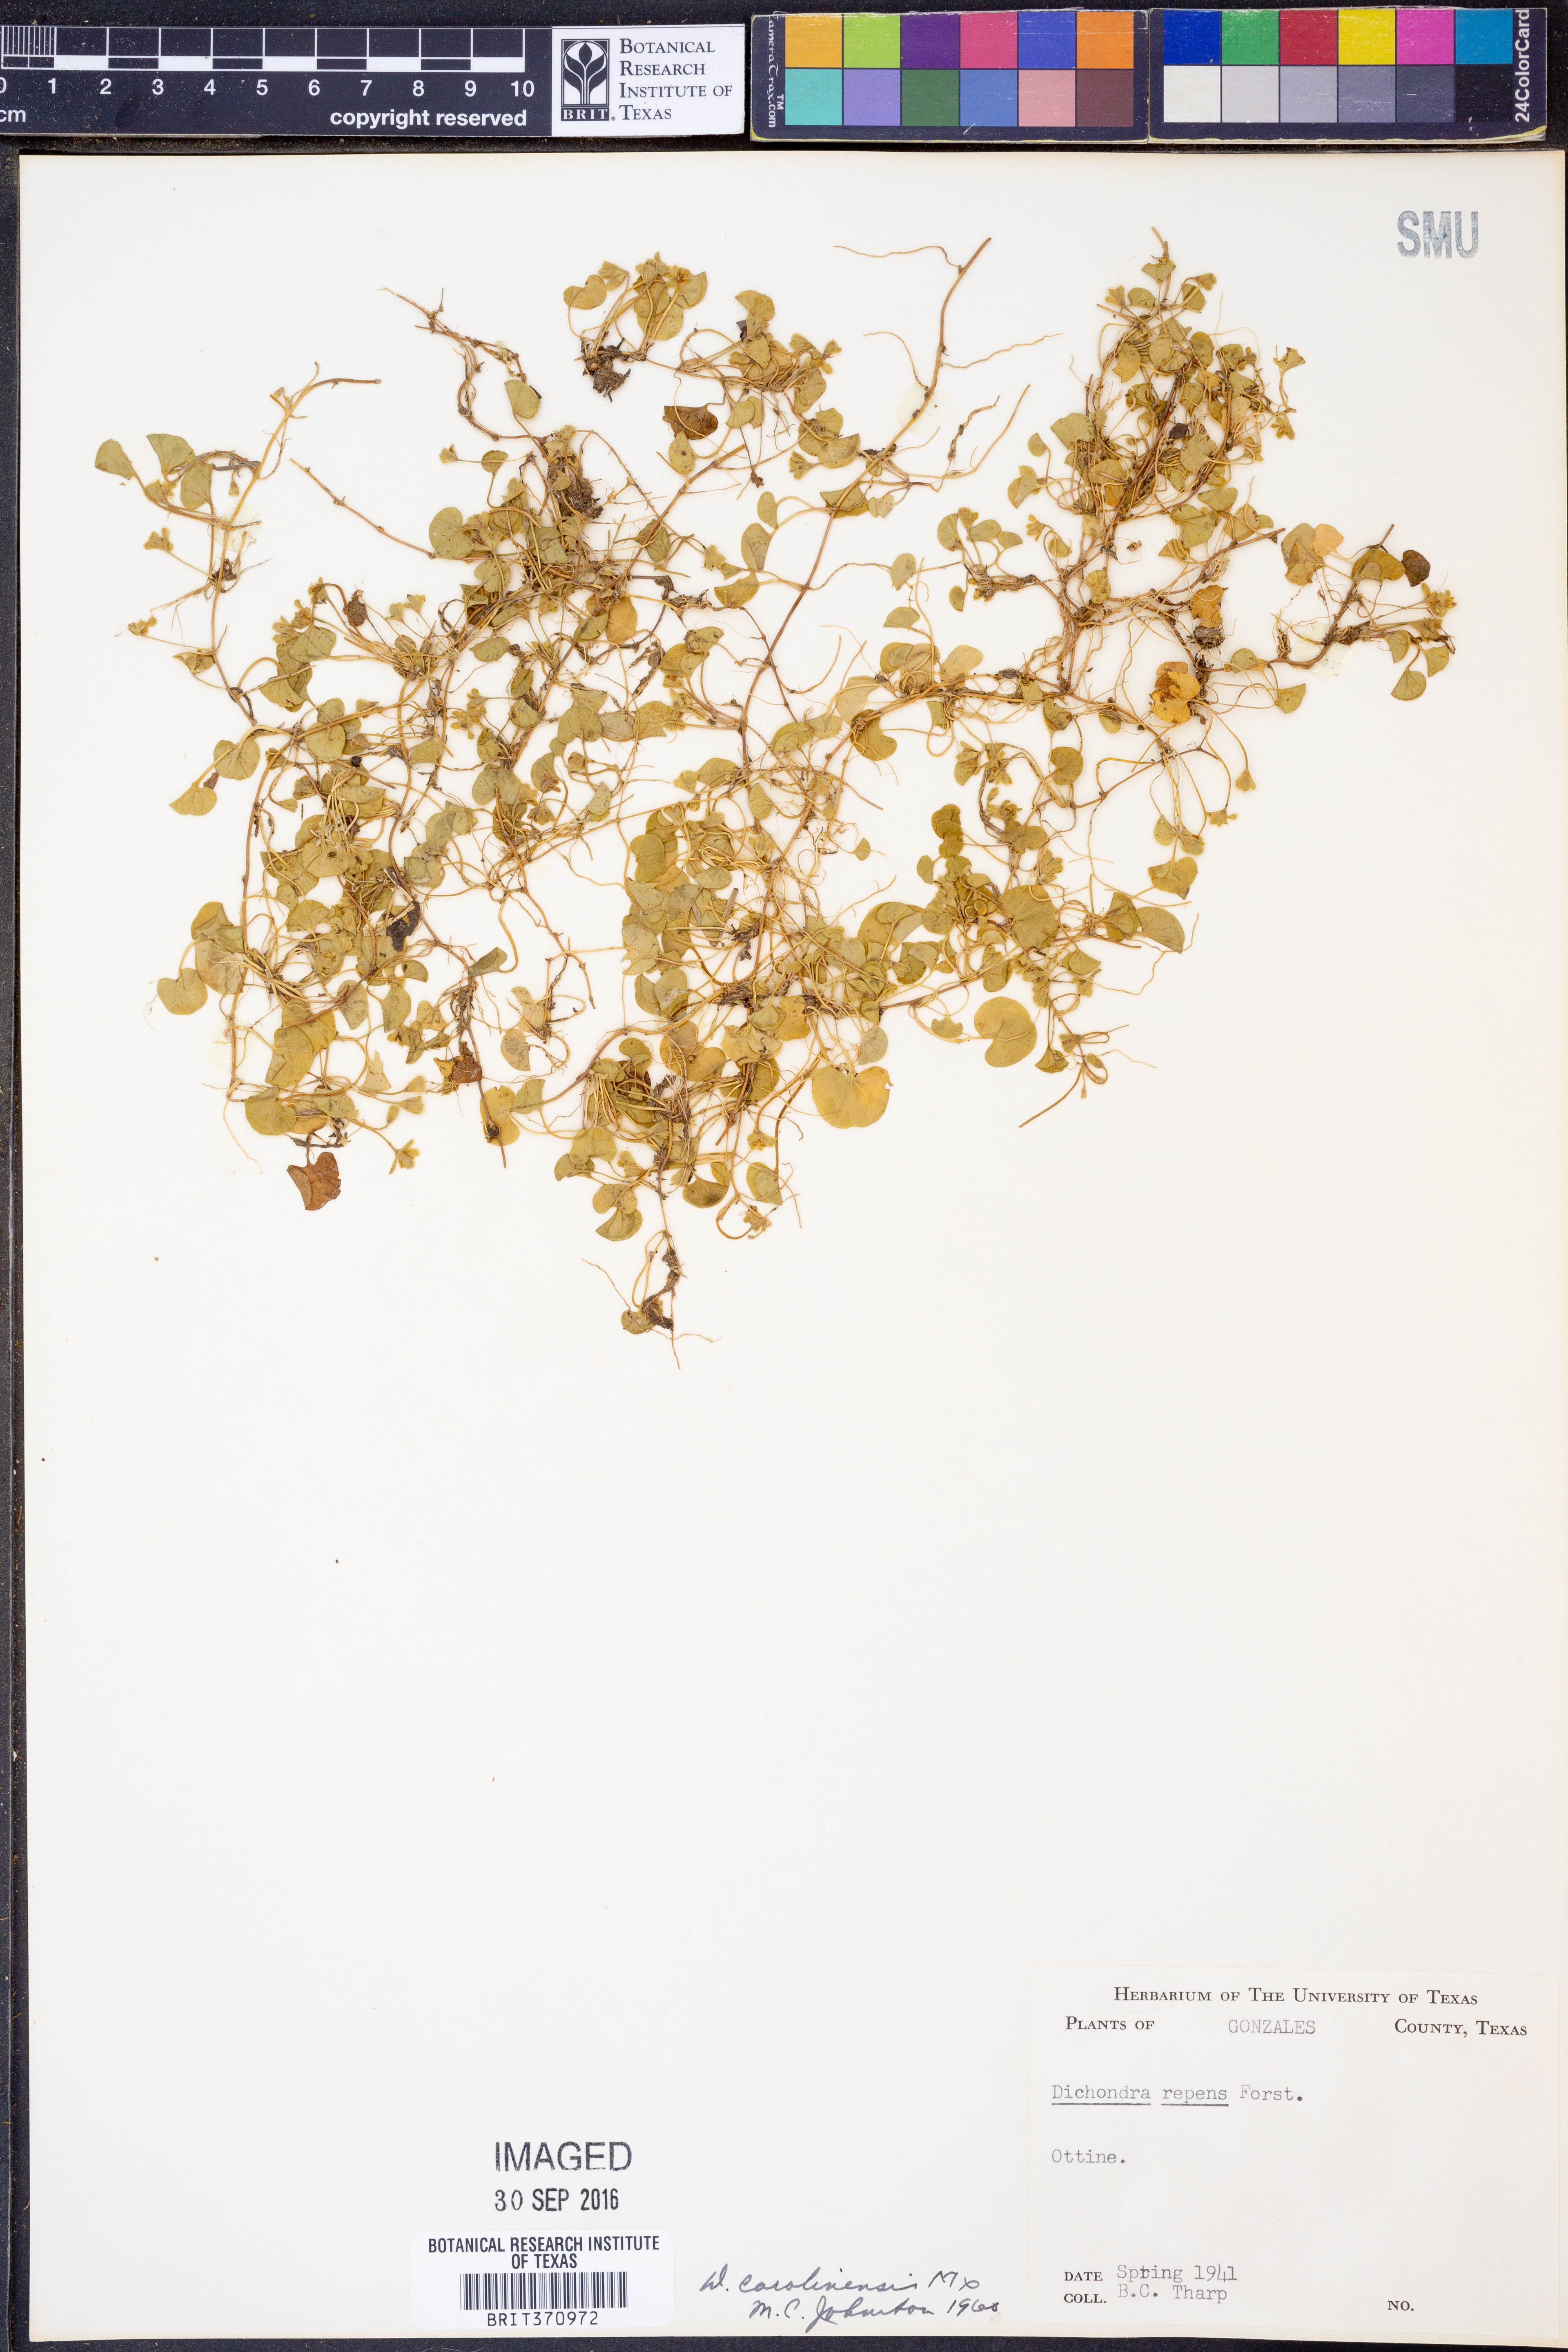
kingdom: Plantae
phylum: Tracheophyta
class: Magnoliopsida
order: Solanales
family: Convolvulaceae
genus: Dichondra
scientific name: Dichondra carolinensis
